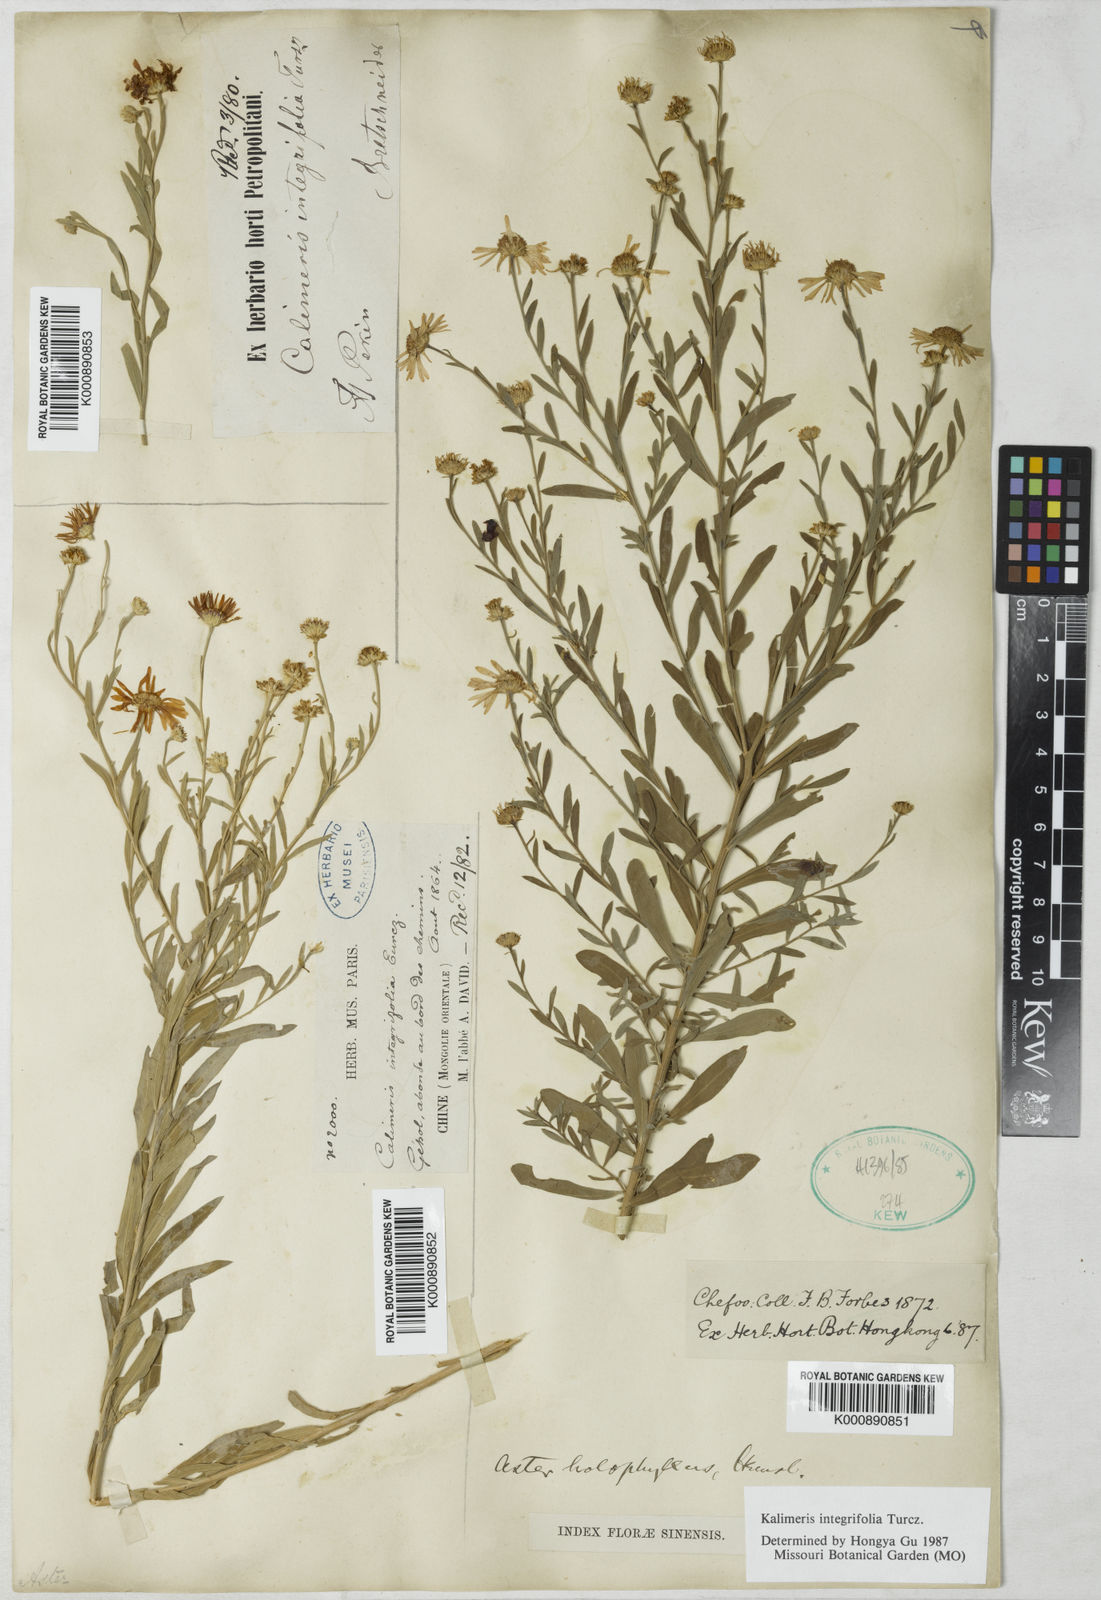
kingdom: Plantae
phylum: Tracheophyta
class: Magnoliopsida
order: Asterales
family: Asteraceae
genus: Kalimeris
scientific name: Kalimeris
